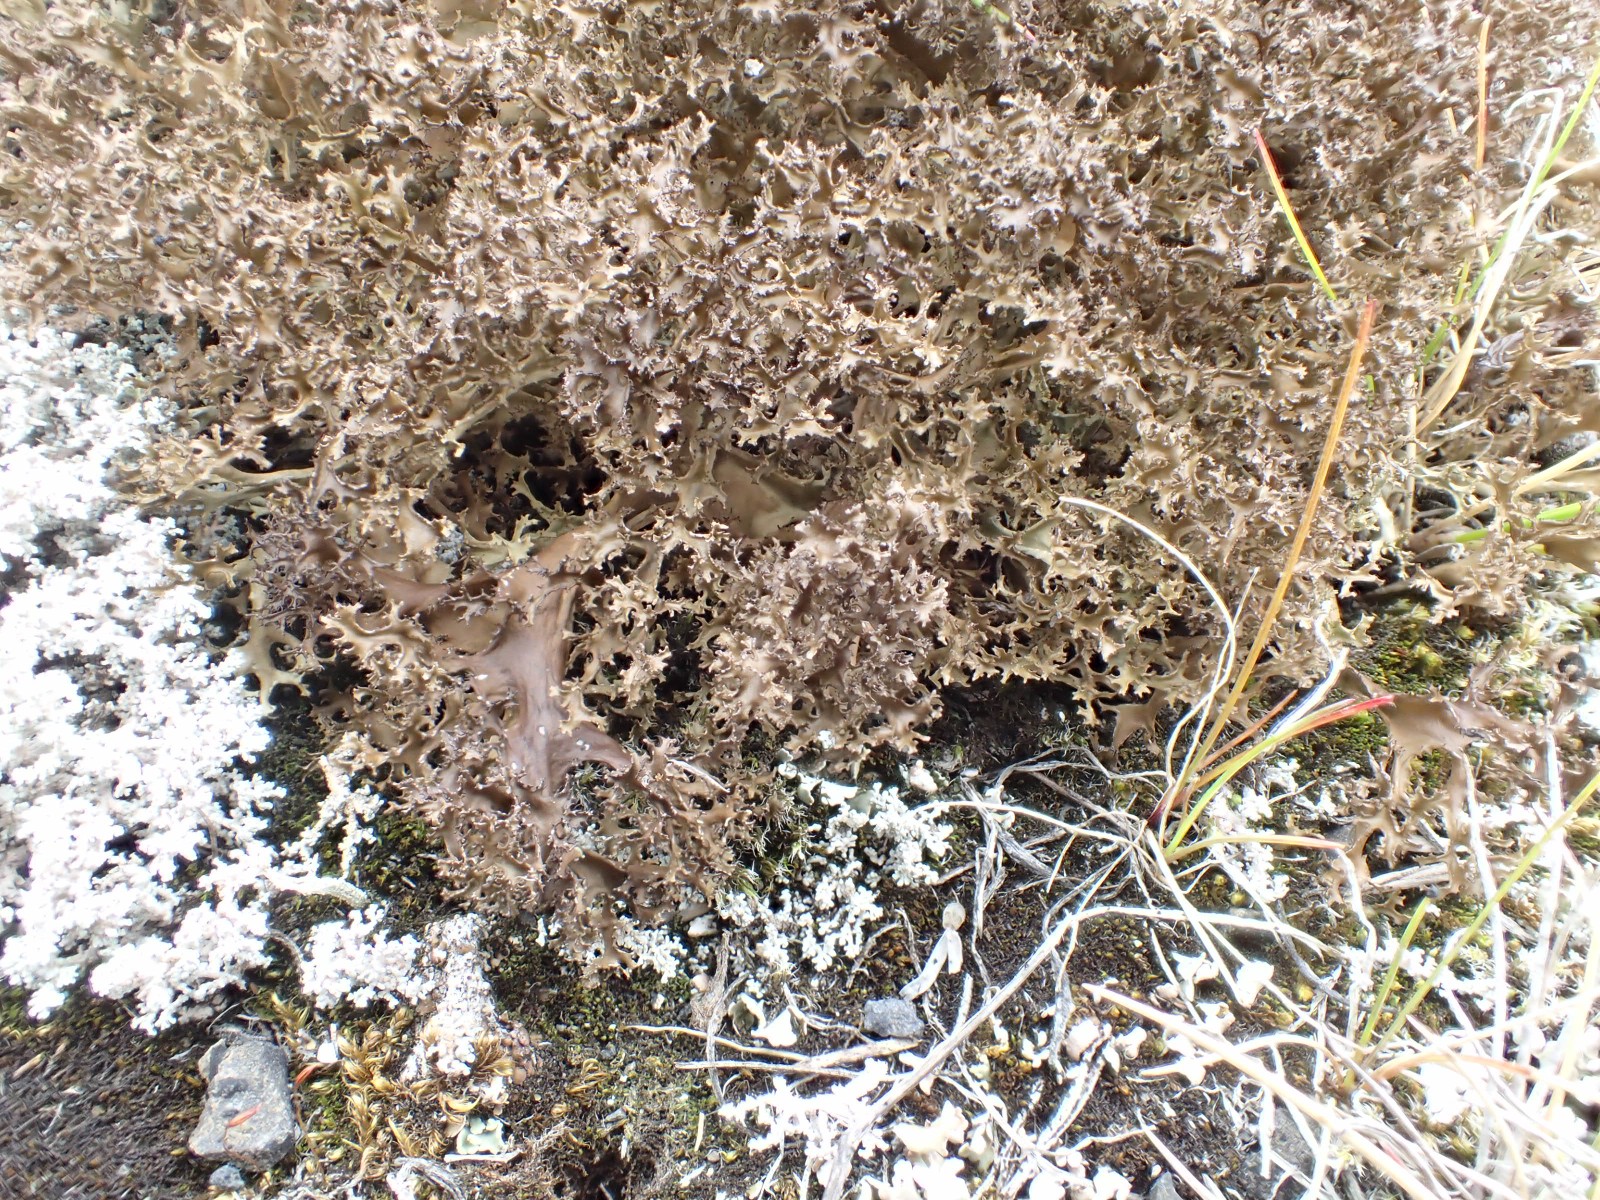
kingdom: Fungi
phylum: Ascomycota
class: Lecanoromycetes
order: Lecanorales
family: Parmeliaceae
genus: Cetraria
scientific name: Cetraria islandica
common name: islandsk kruslav
